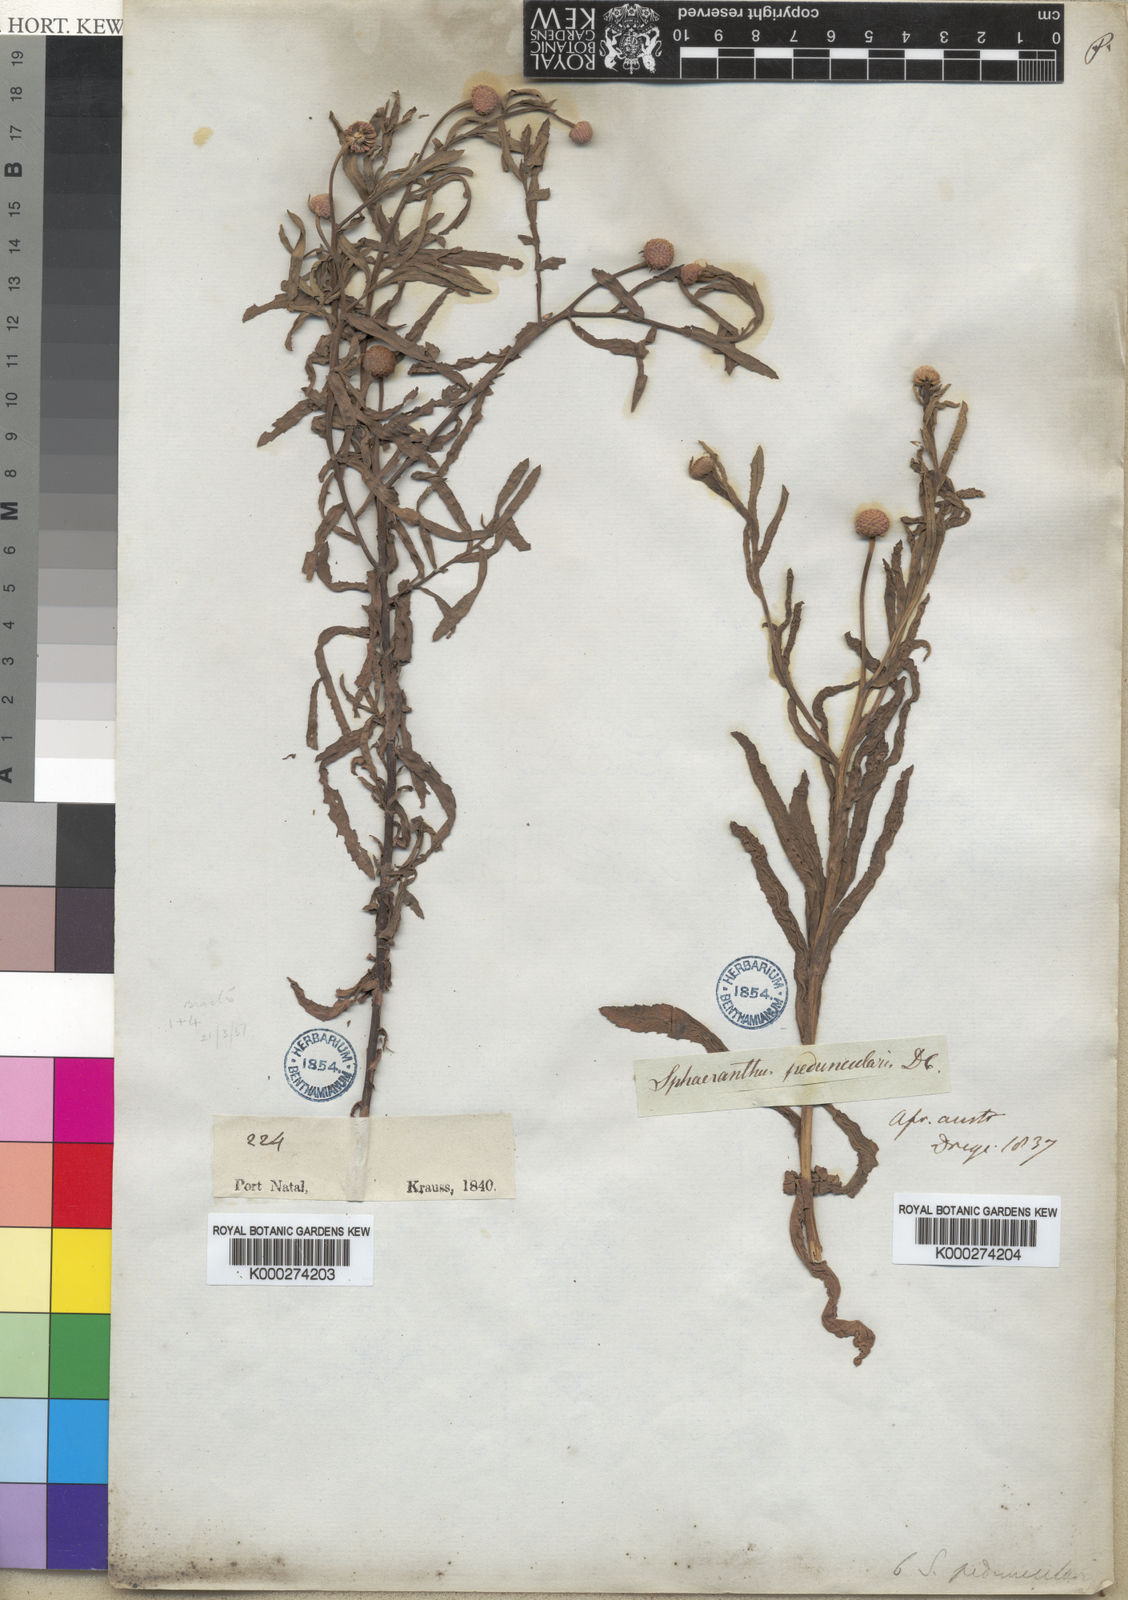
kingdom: Plantae
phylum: Tracheophyta
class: Magnoliopsida
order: Asterales
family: Asteraceae
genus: Sphaeranthus
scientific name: Sphaeranthus peduncularis
